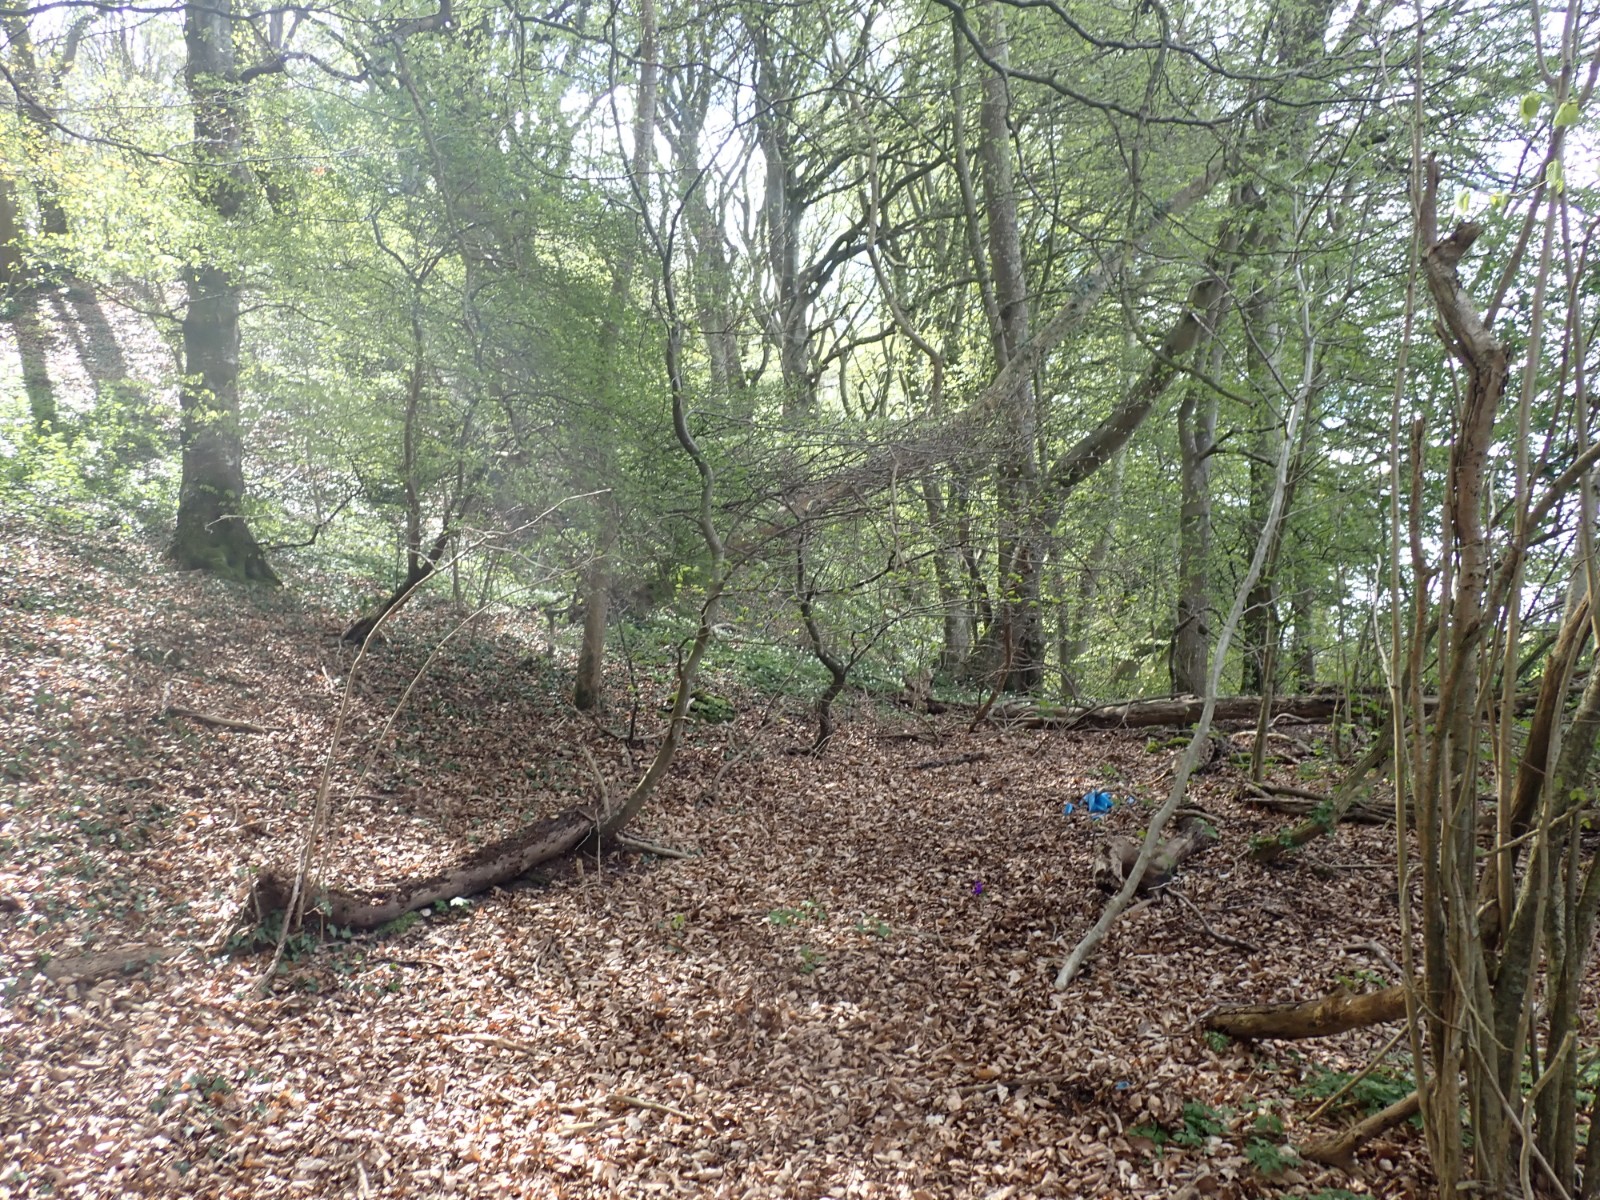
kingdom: Fungi
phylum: Basidiomycota
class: Pucciniomycetes
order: Pucciniales
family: Tranzscheliaceae
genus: Tranzschelia
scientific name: Tranzschelia anemones
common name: anemone-knæksporerust
